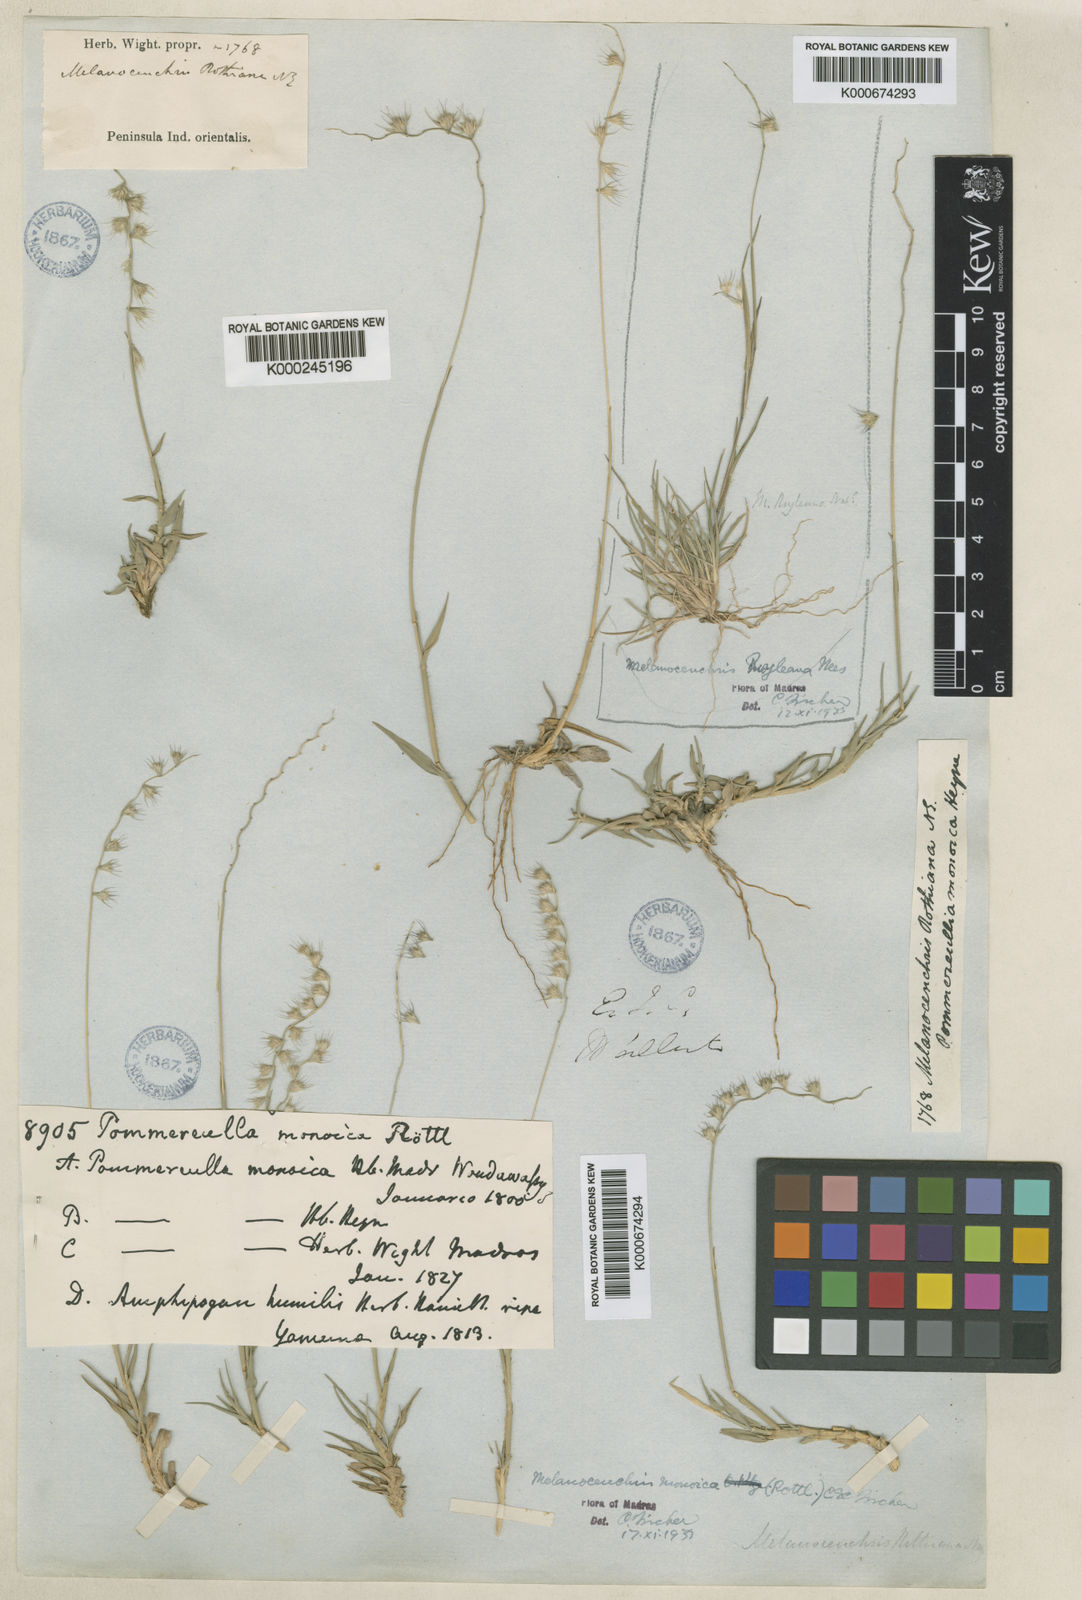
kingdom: Plantae
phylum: Tracheophyta
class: Liliopsida
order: Poales
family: Poaceae
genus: Melanocenchris
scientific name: Melanocenchris rothiana
